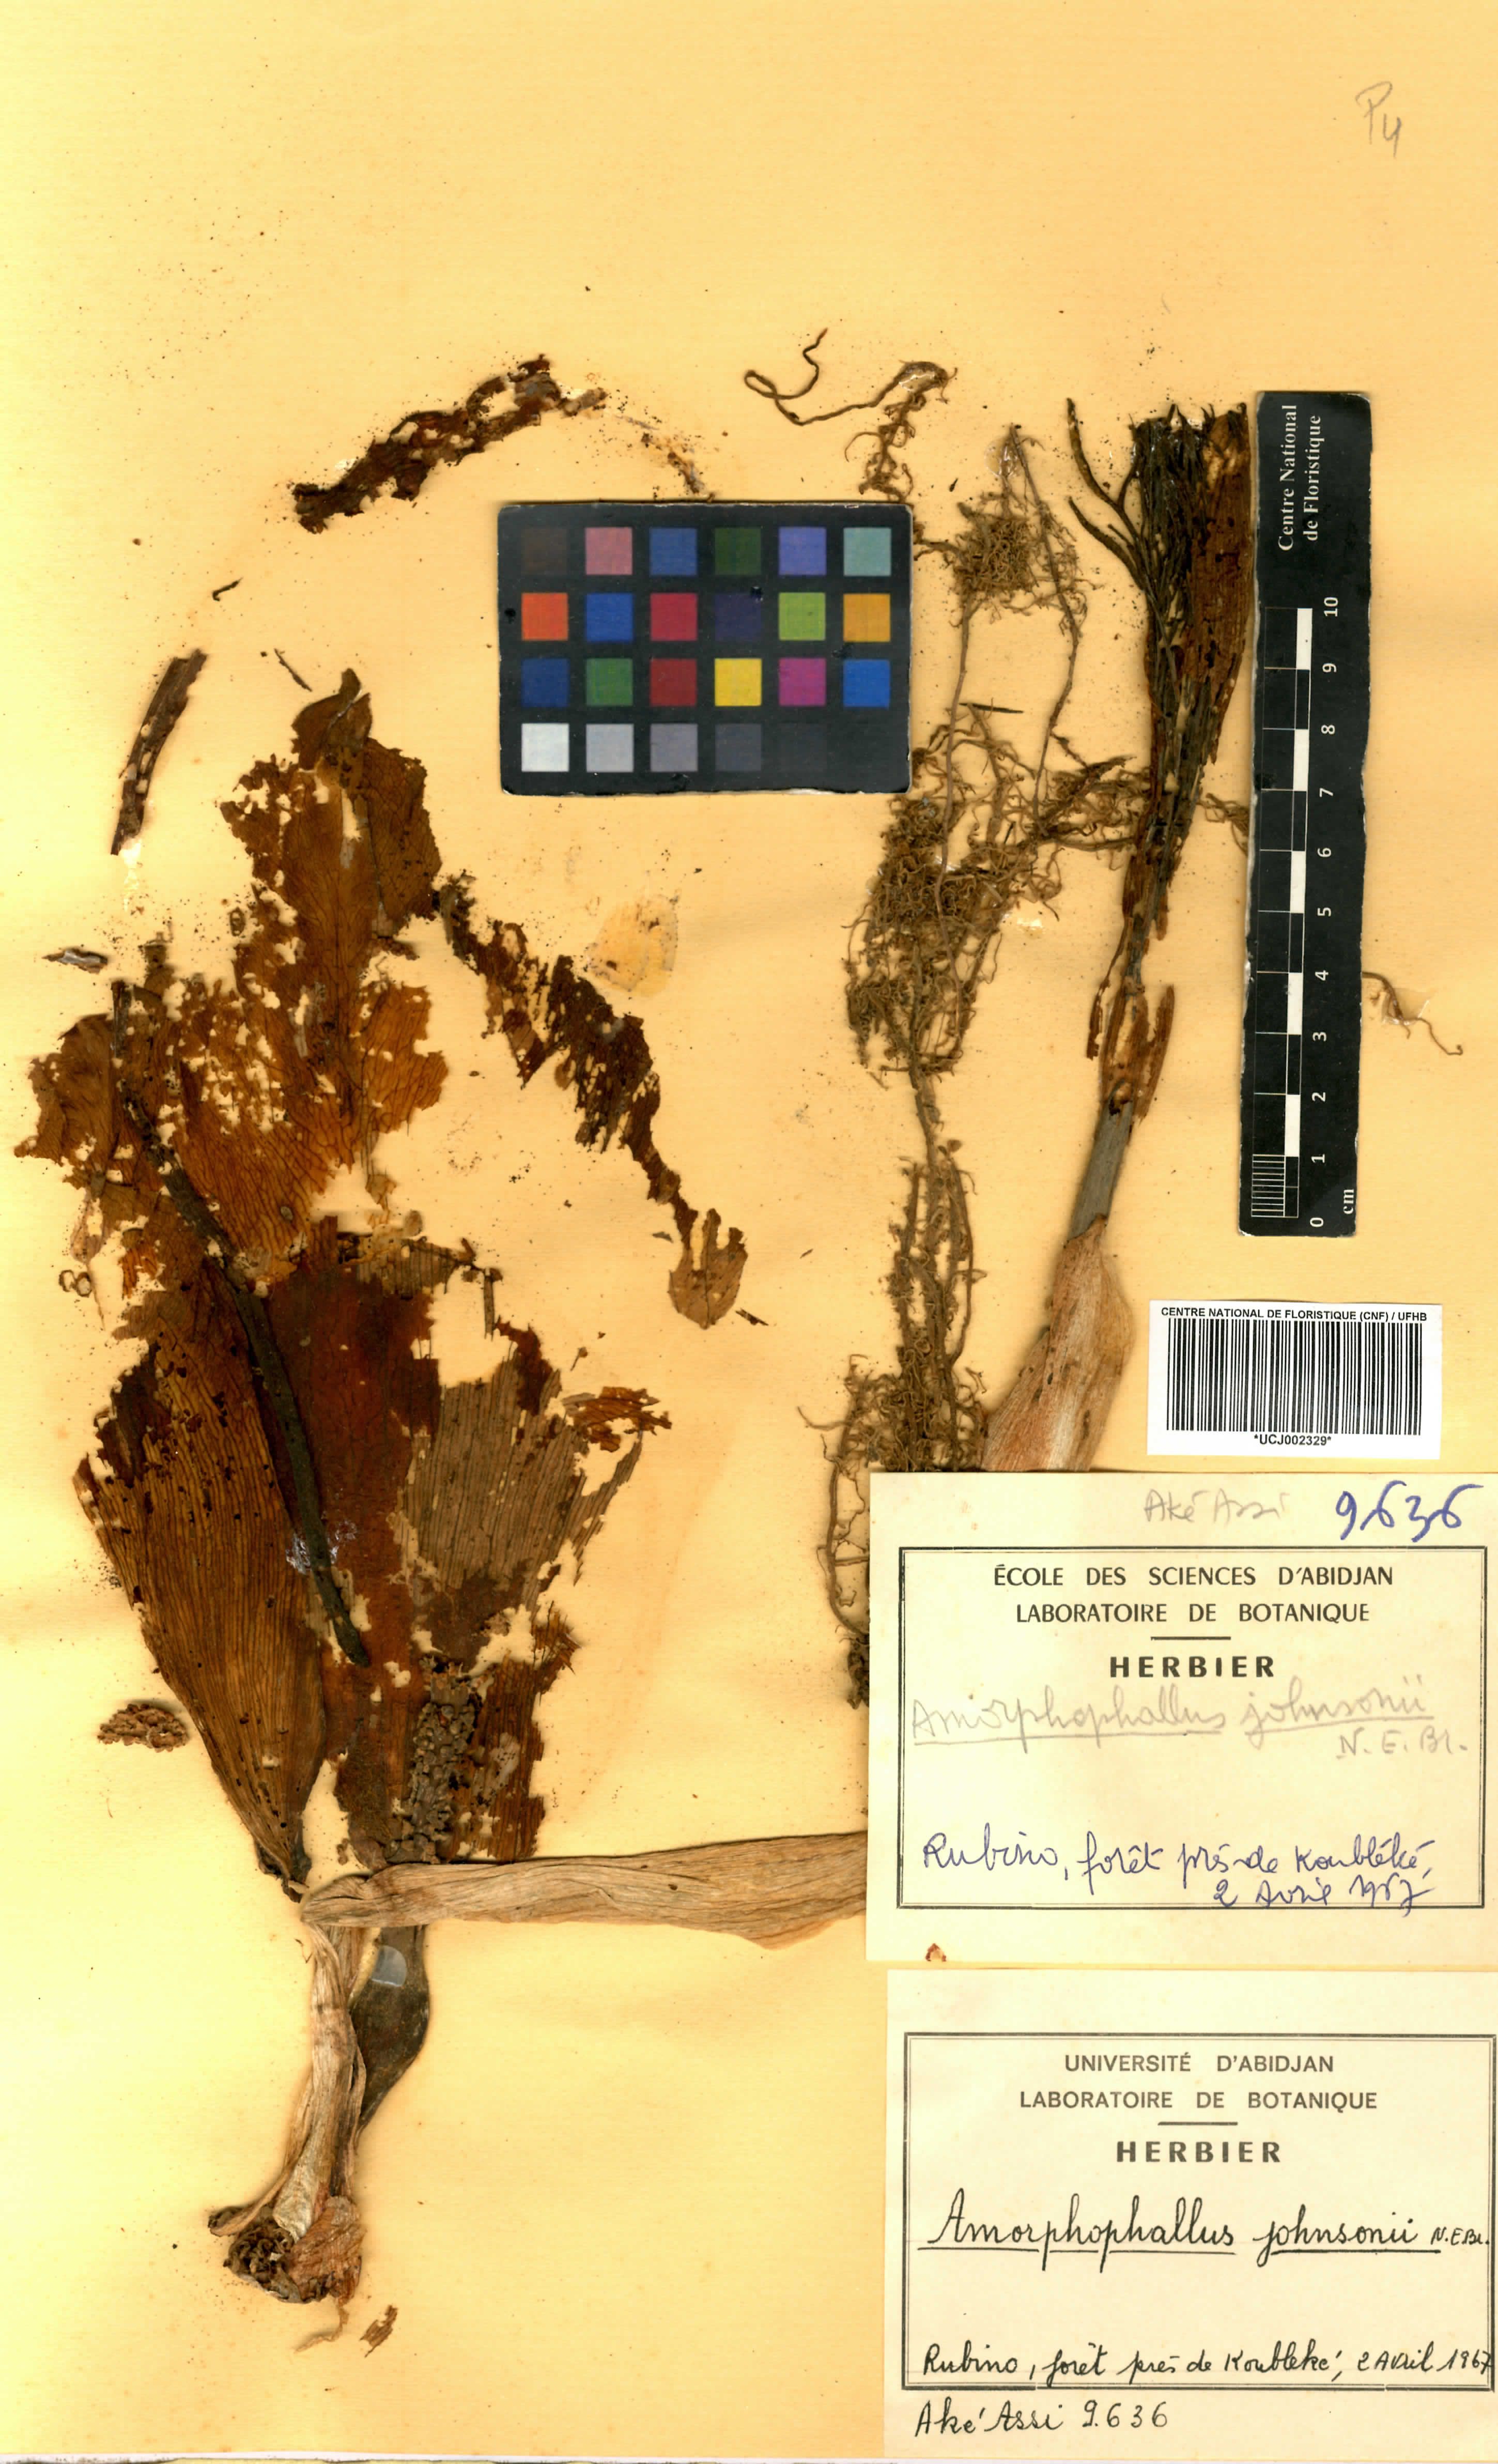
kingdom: Plantae
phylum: Tracheophyta
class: Liliopsida
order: Alismatales
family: Araceae
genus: Amorphophallus
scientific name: Amorphophallus johnsonii
